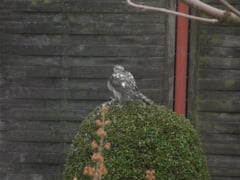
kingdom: Animalia
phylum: Chordata
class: Aves
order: Accipitriformes
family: Accipitridae
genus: Accipiter
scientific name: Accipiter nisus
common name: Eurasian sparrowhawk
